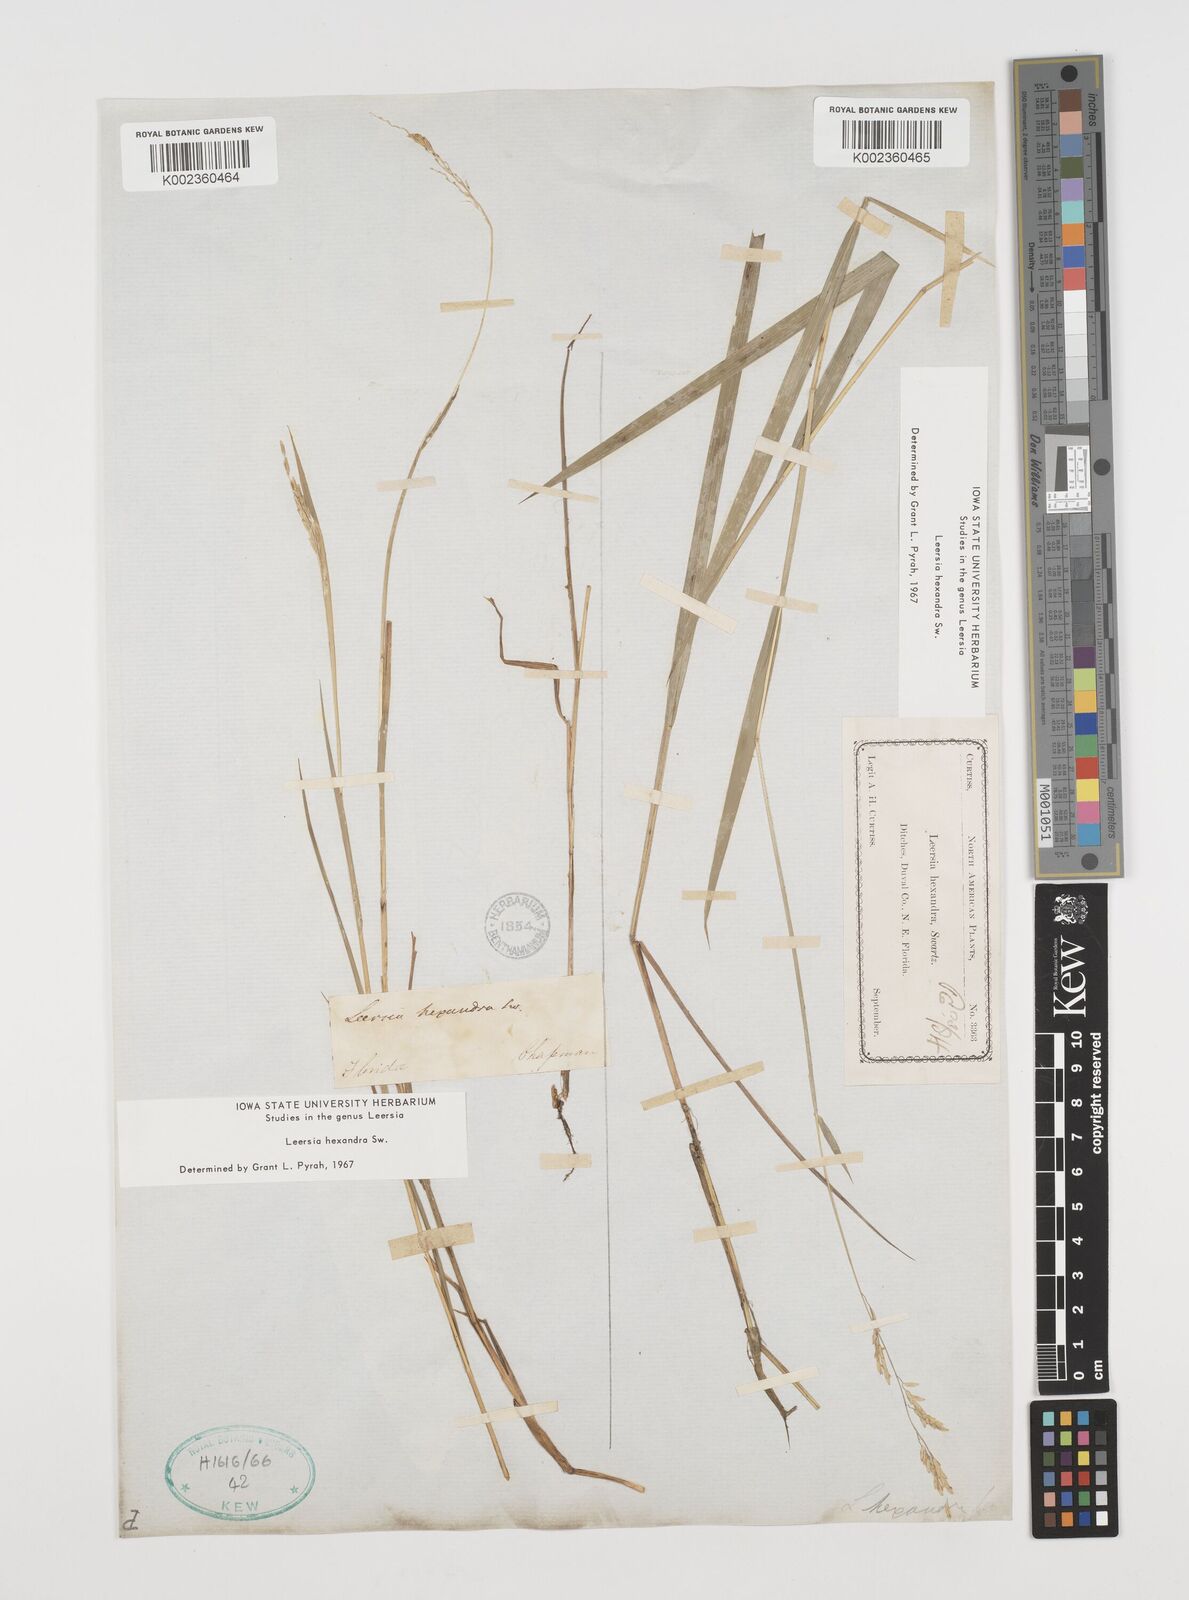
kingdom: Plantae
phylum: Tracheophyta
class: Liliopsida
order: Poales
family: Poaceae
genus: Leersia
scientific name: Leersia hexandra
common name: Southern cut grass
